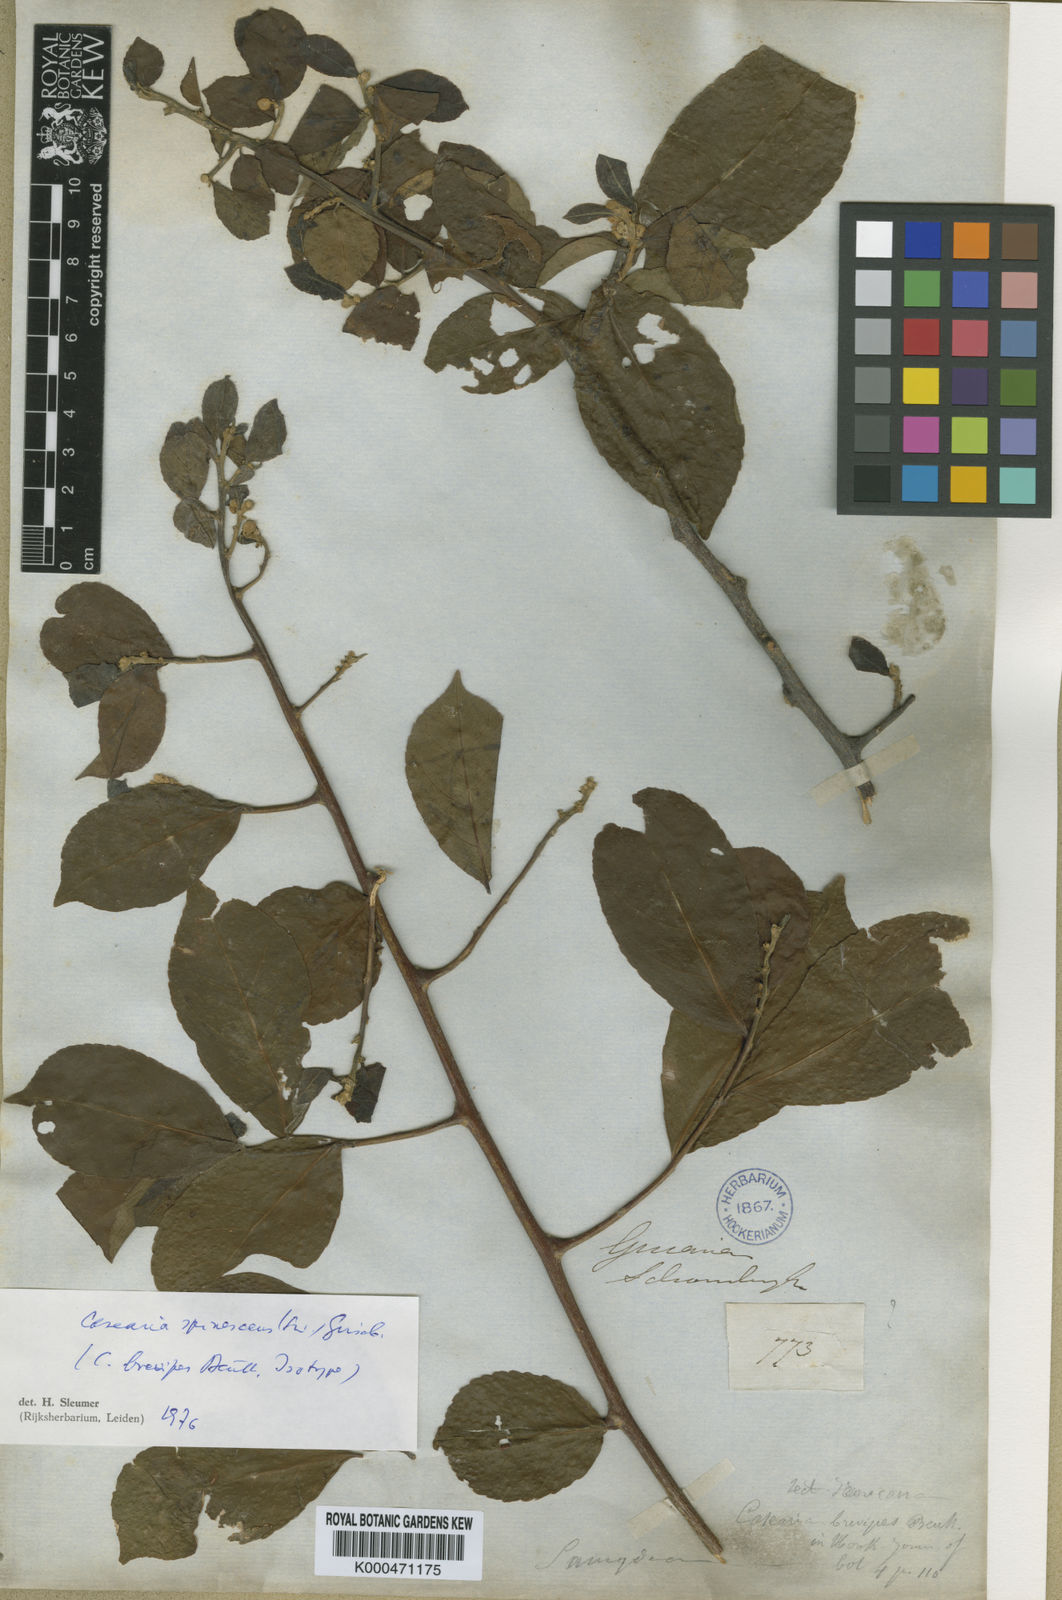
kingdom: Plantae
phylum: Tracheophyta
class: Magnoliopsida
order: Malpighiales
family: Salicaceae
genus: Casearia
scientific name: Casearia spinescens
